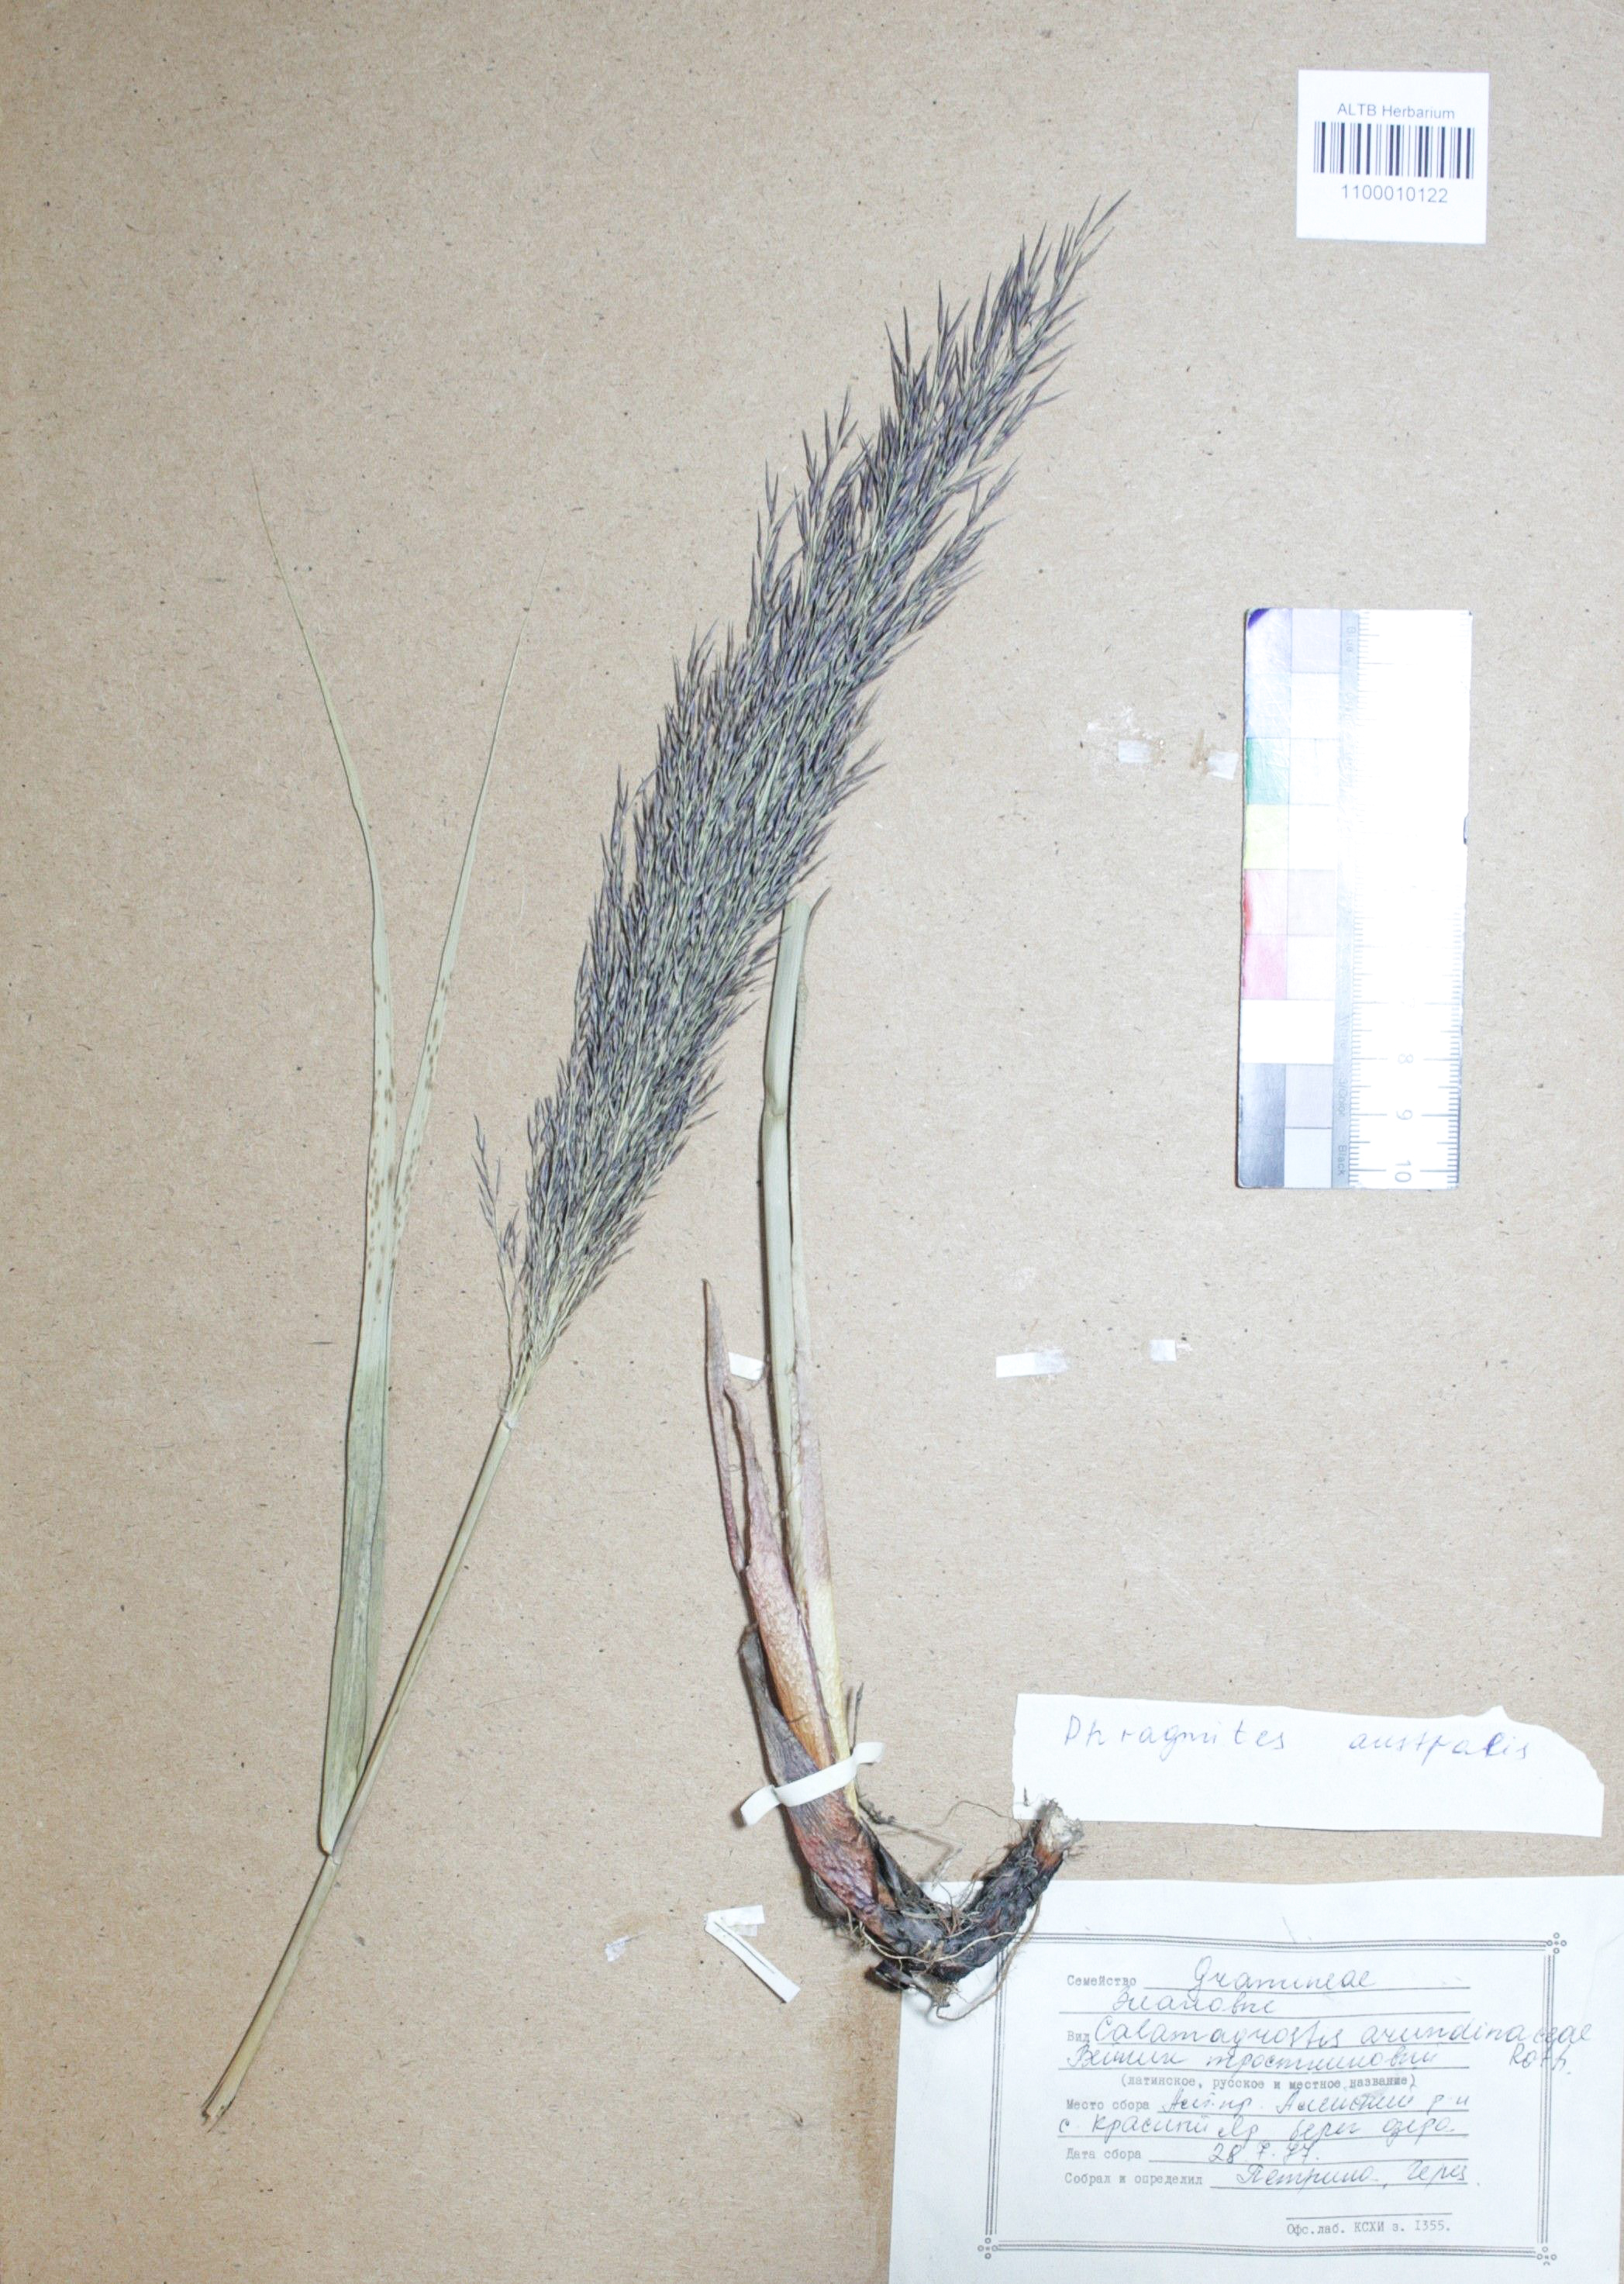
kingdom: Plantae
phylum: Tracheophyta
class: Liliopsida
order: Poales
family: Poaceae
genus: Phragmites
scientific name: Phragmites australis
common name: Common reed
